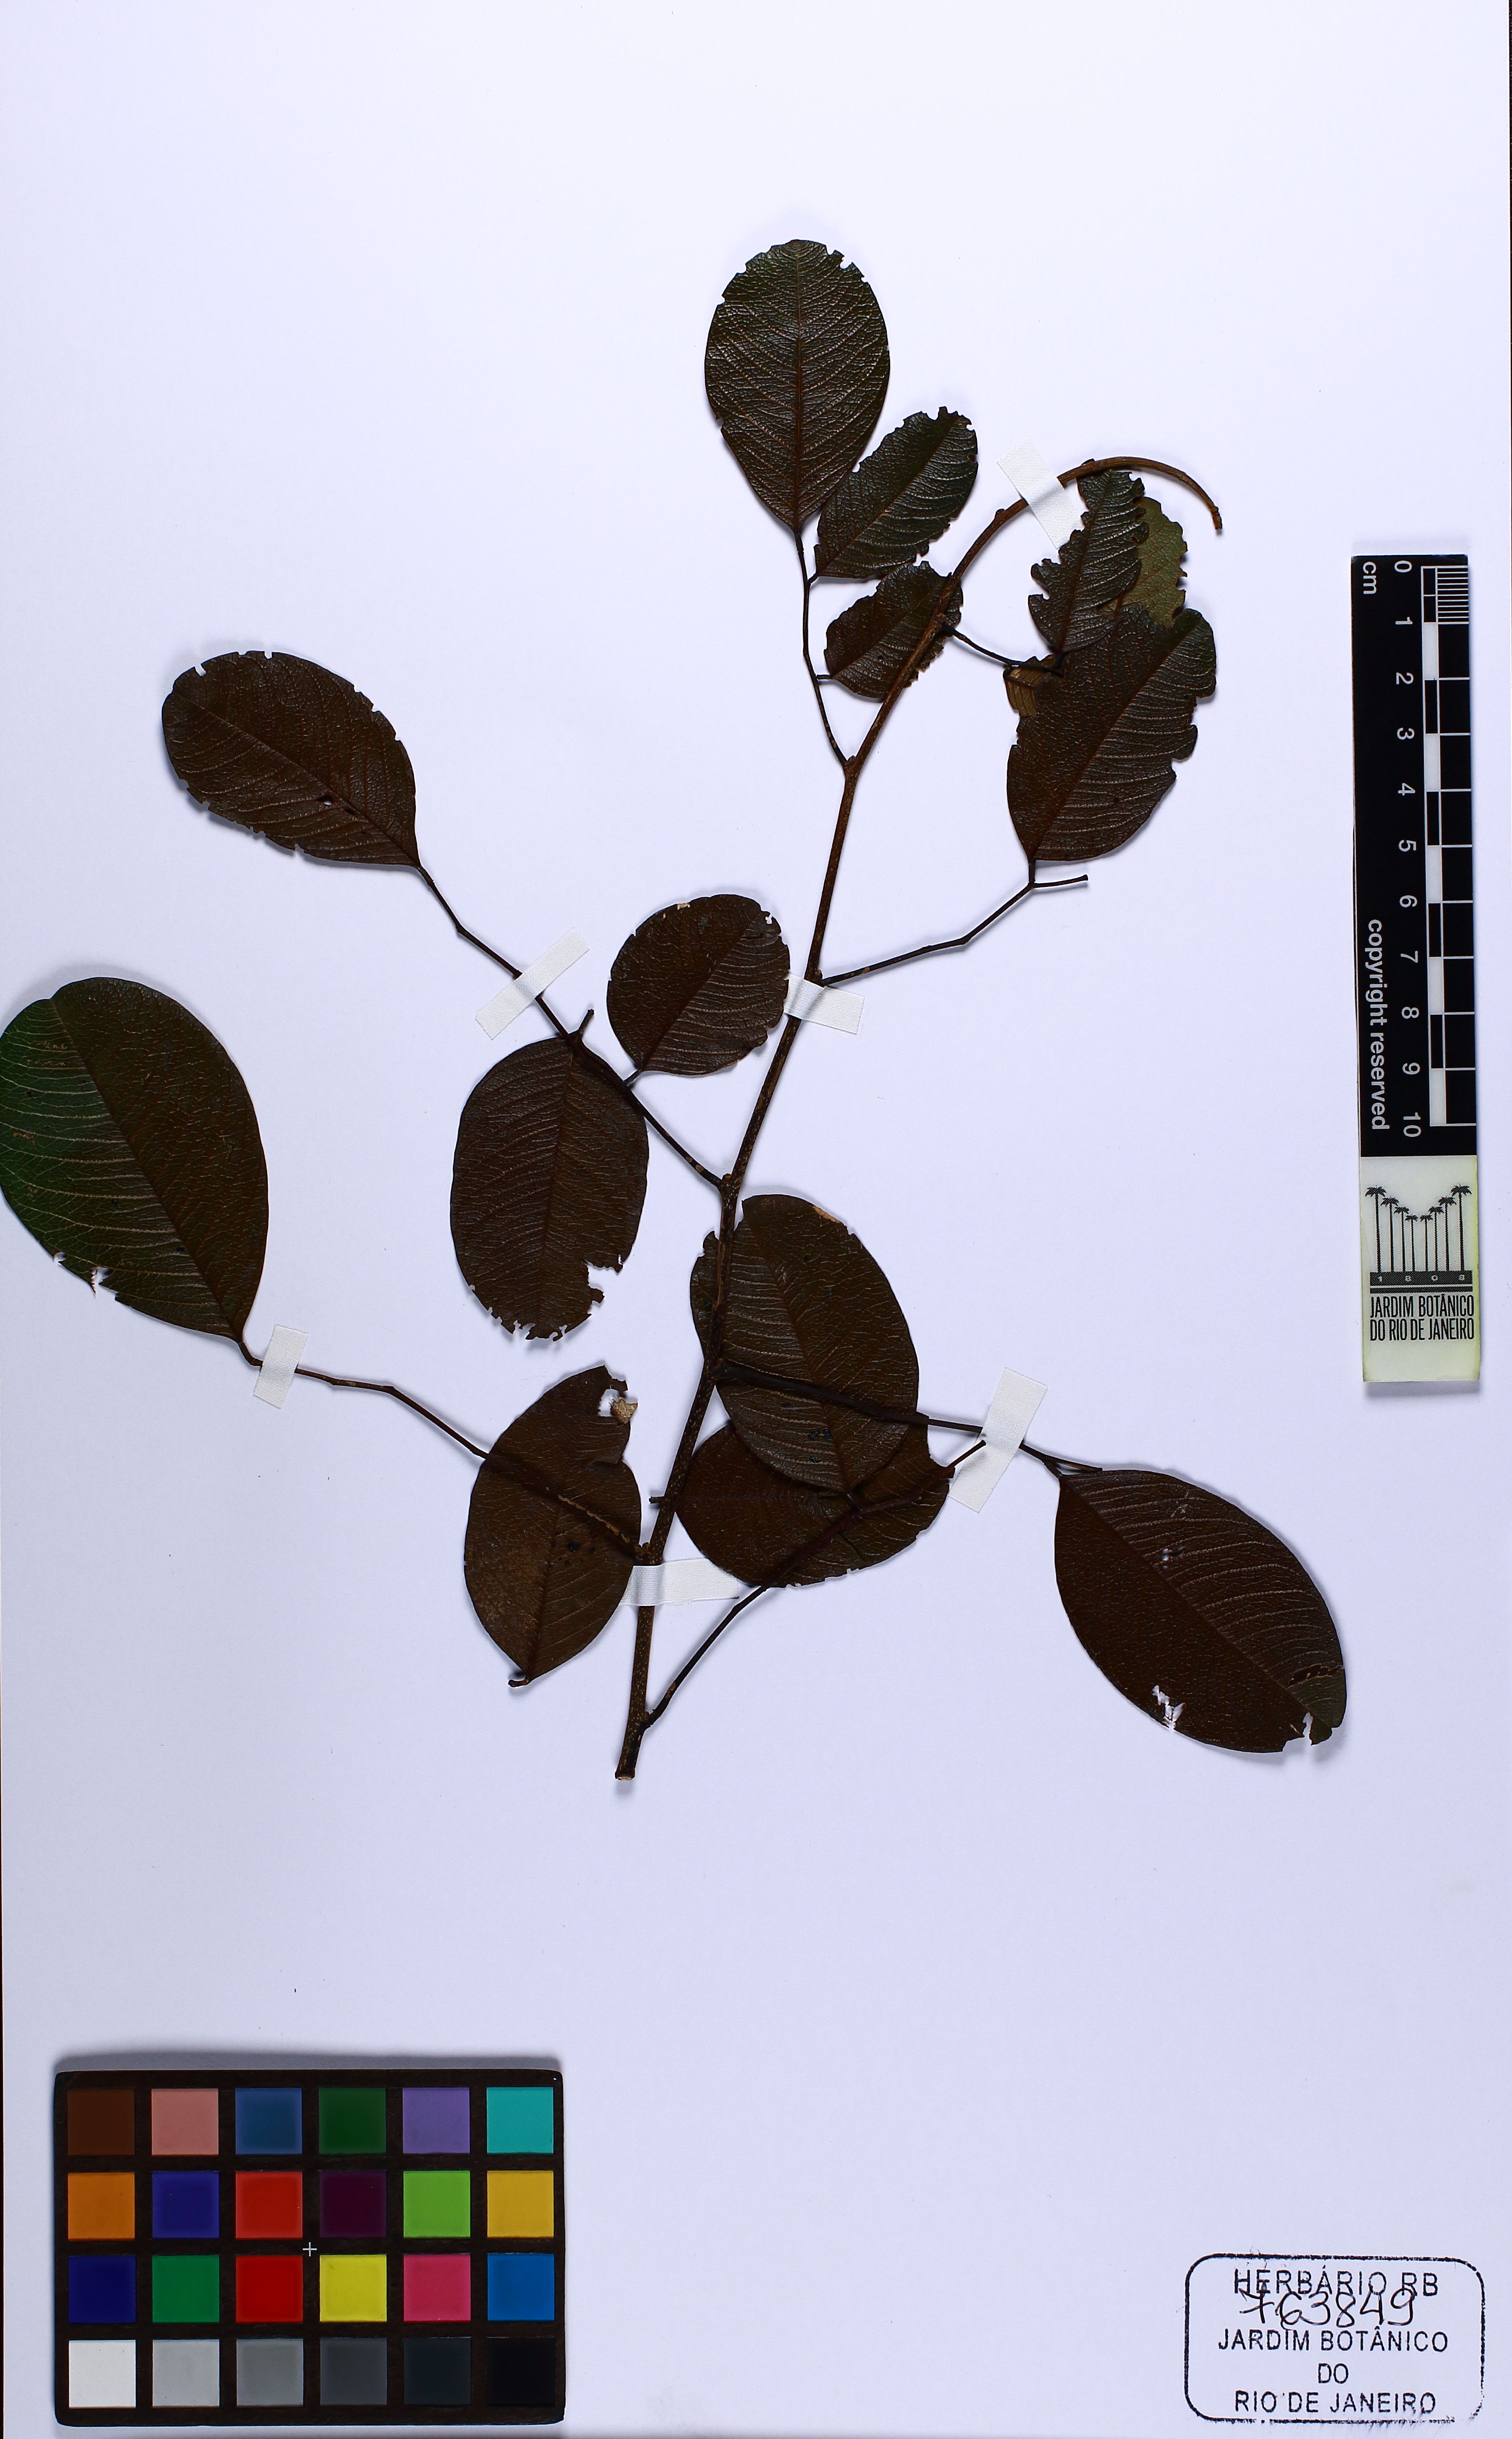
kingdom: Plantae
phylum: Tracheophyta
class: Magnoliopsida
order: Fabales
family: Fabaceae
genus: Dalbergia
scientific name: Dalbergia frutescens
